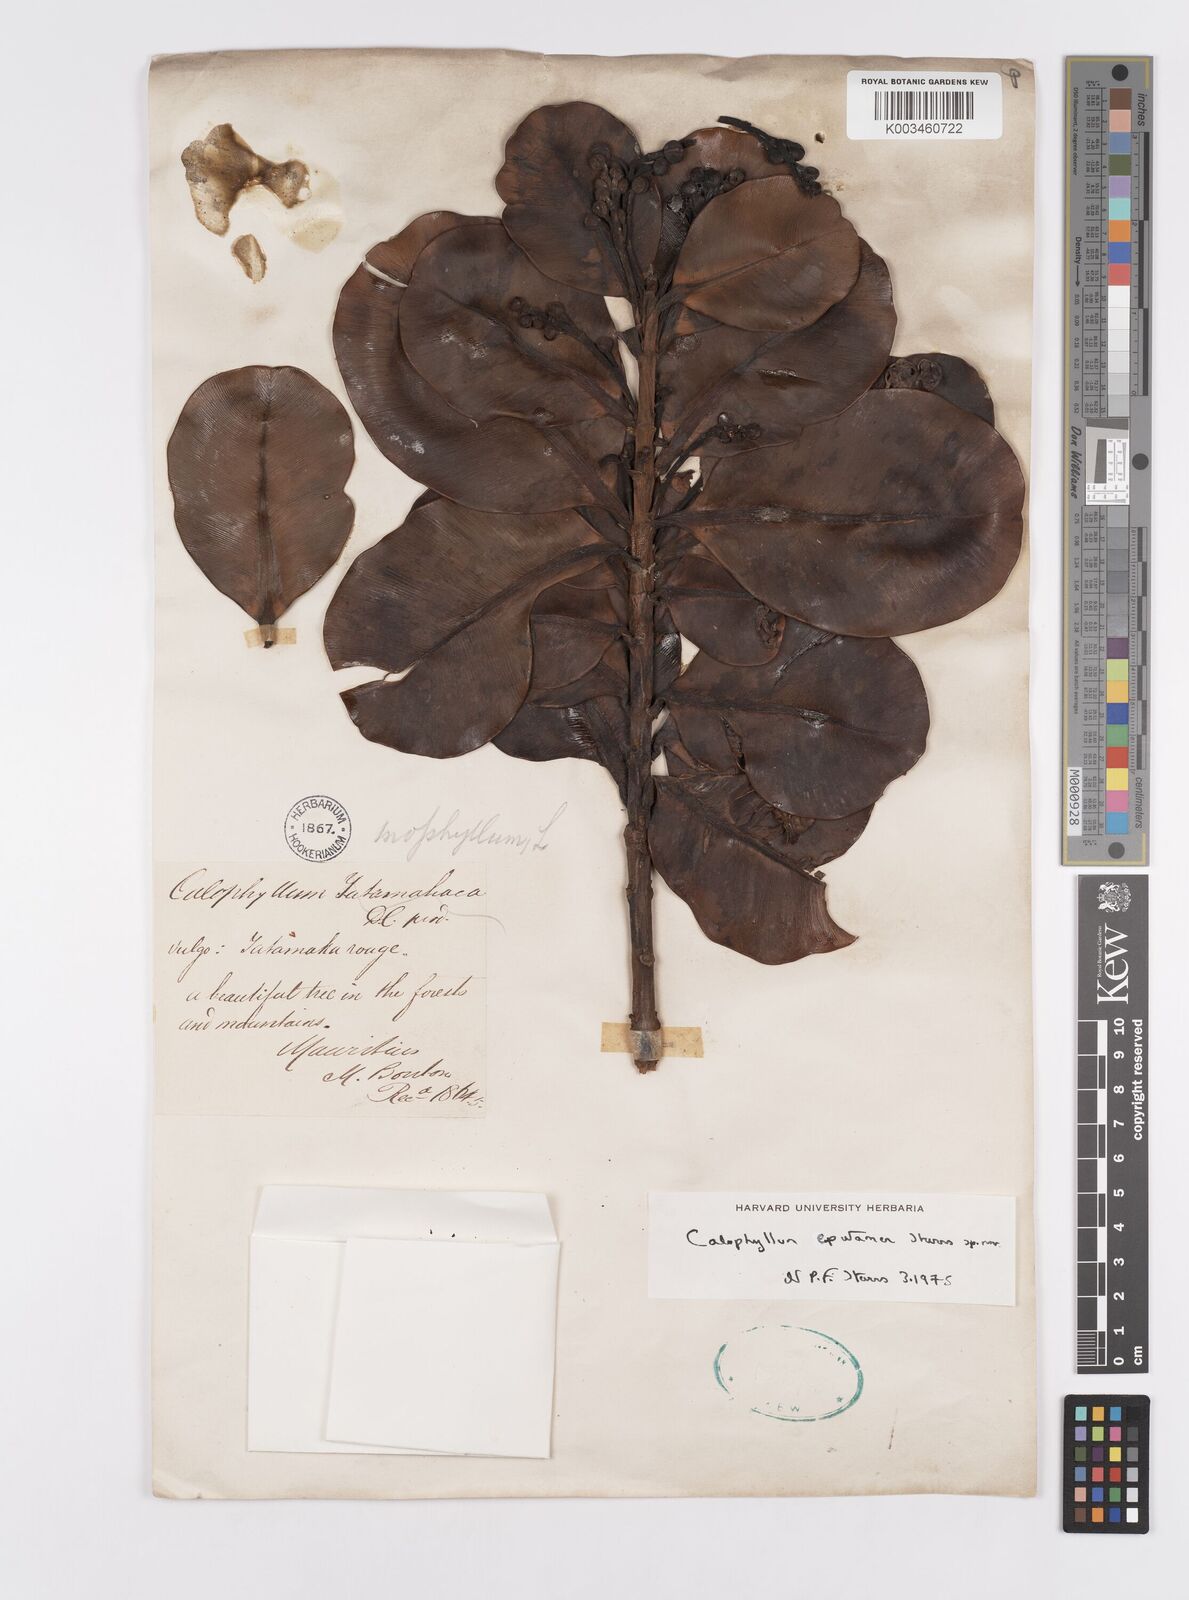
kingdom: Plantae
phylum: Tracheophyta
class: Magnoliopsida
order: Malpighiales
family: Calophyllaceae
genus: Calophyllum
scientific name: Calophyllum eputamen
